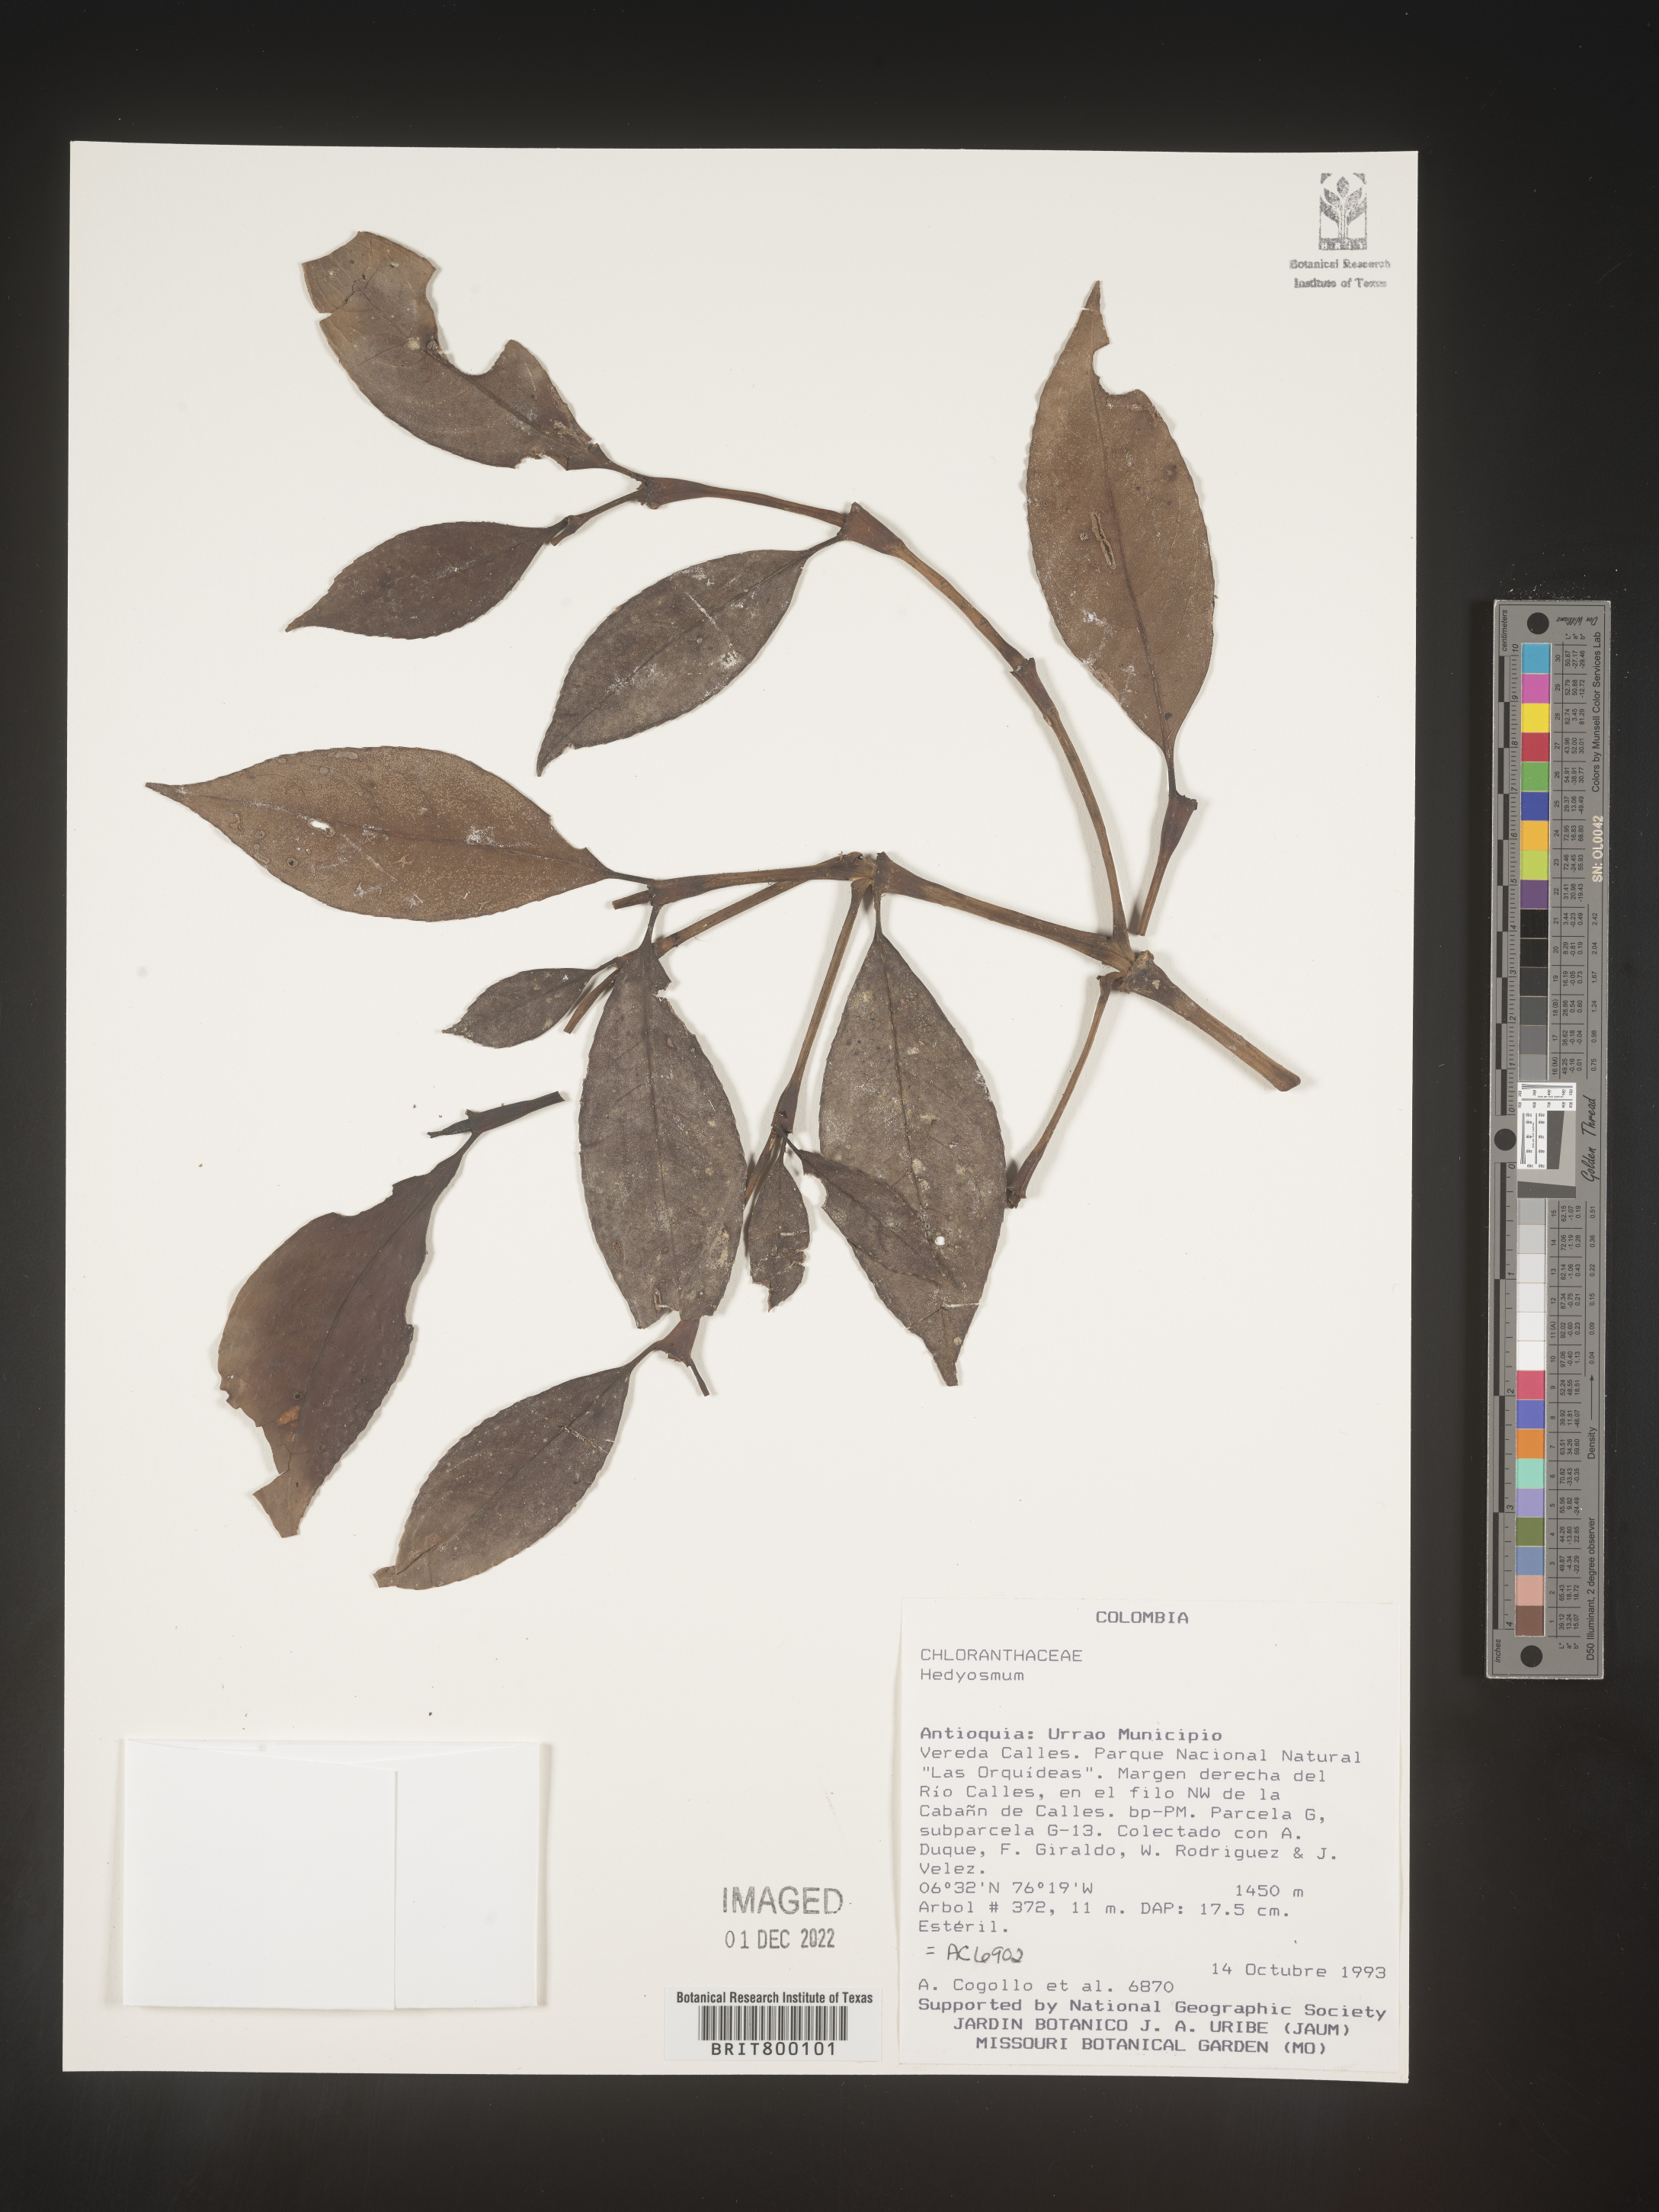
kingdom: Plantae
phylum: Tracheophyta
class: Magnoliopsida
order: Chloranthales
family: Chloranthaceae
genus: Hedyosmum
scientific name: Hedyosmum
